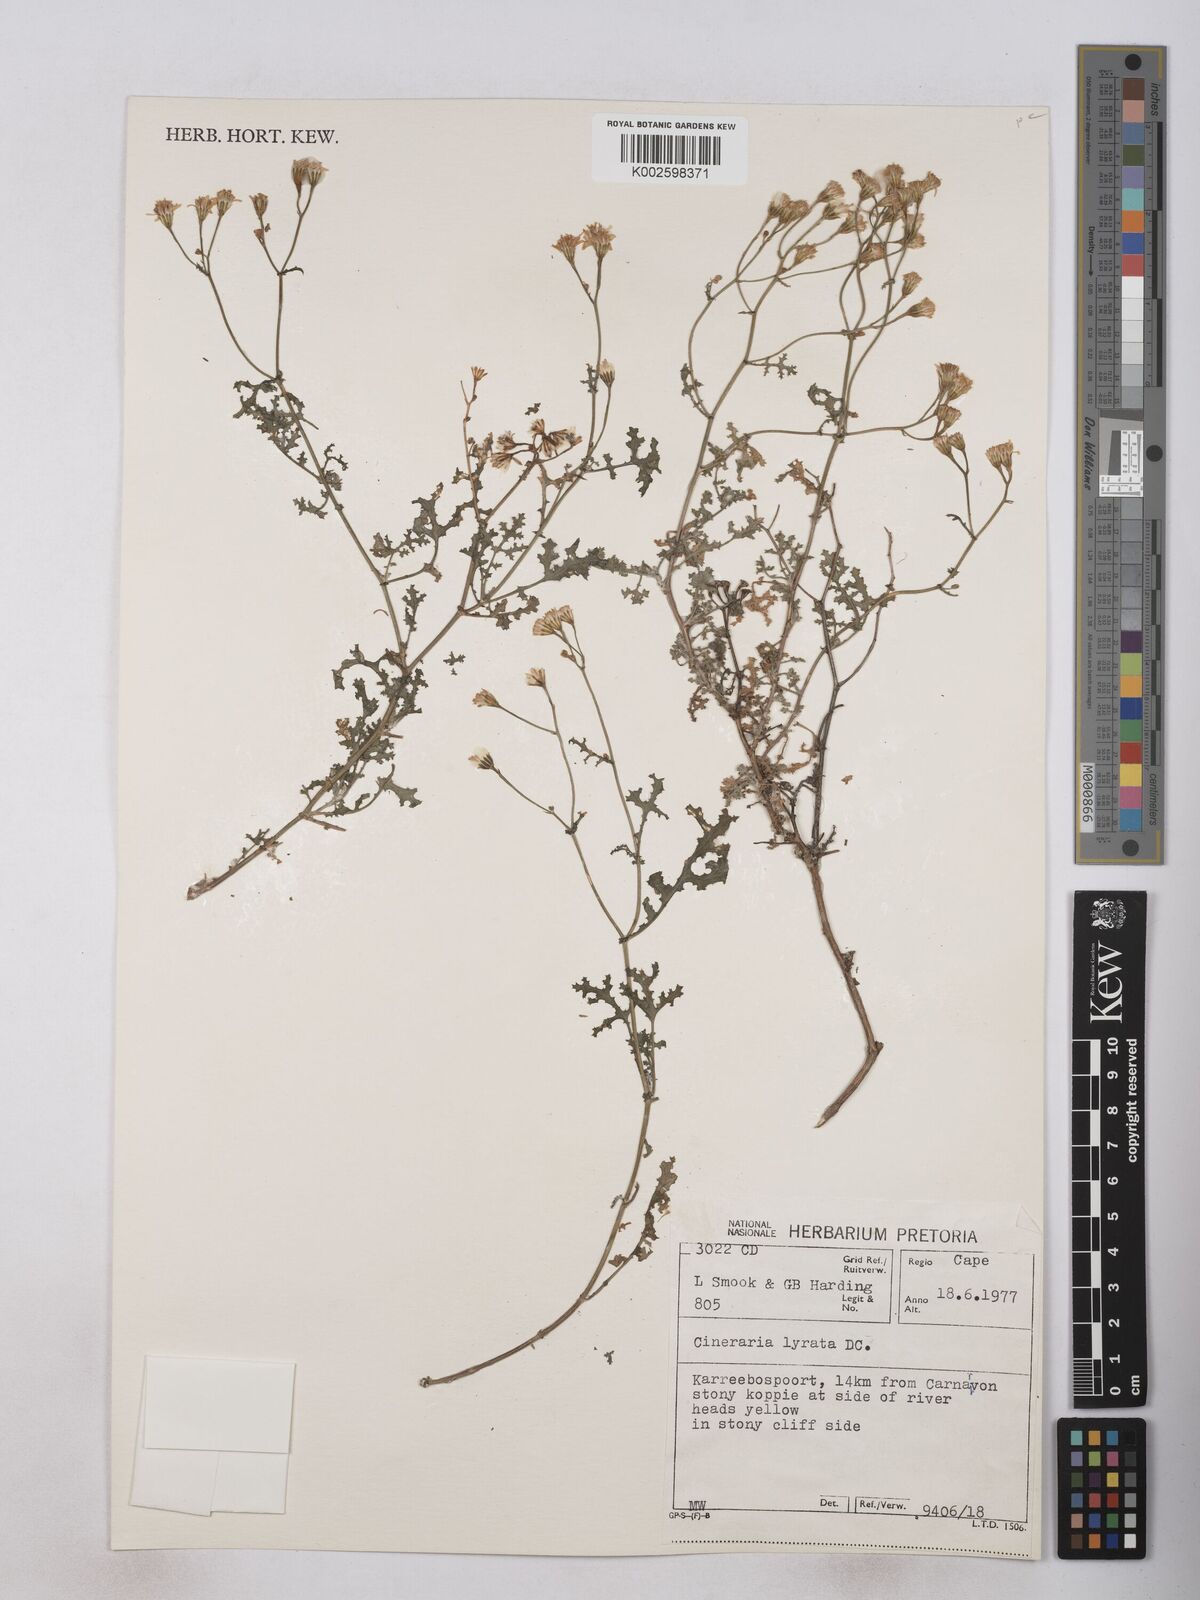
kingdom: Plantae
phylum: Tracheophyta
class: Magnoliopsida
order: Asterales
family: Asteraceae
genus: Senecio
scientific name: Senecio anapetes
